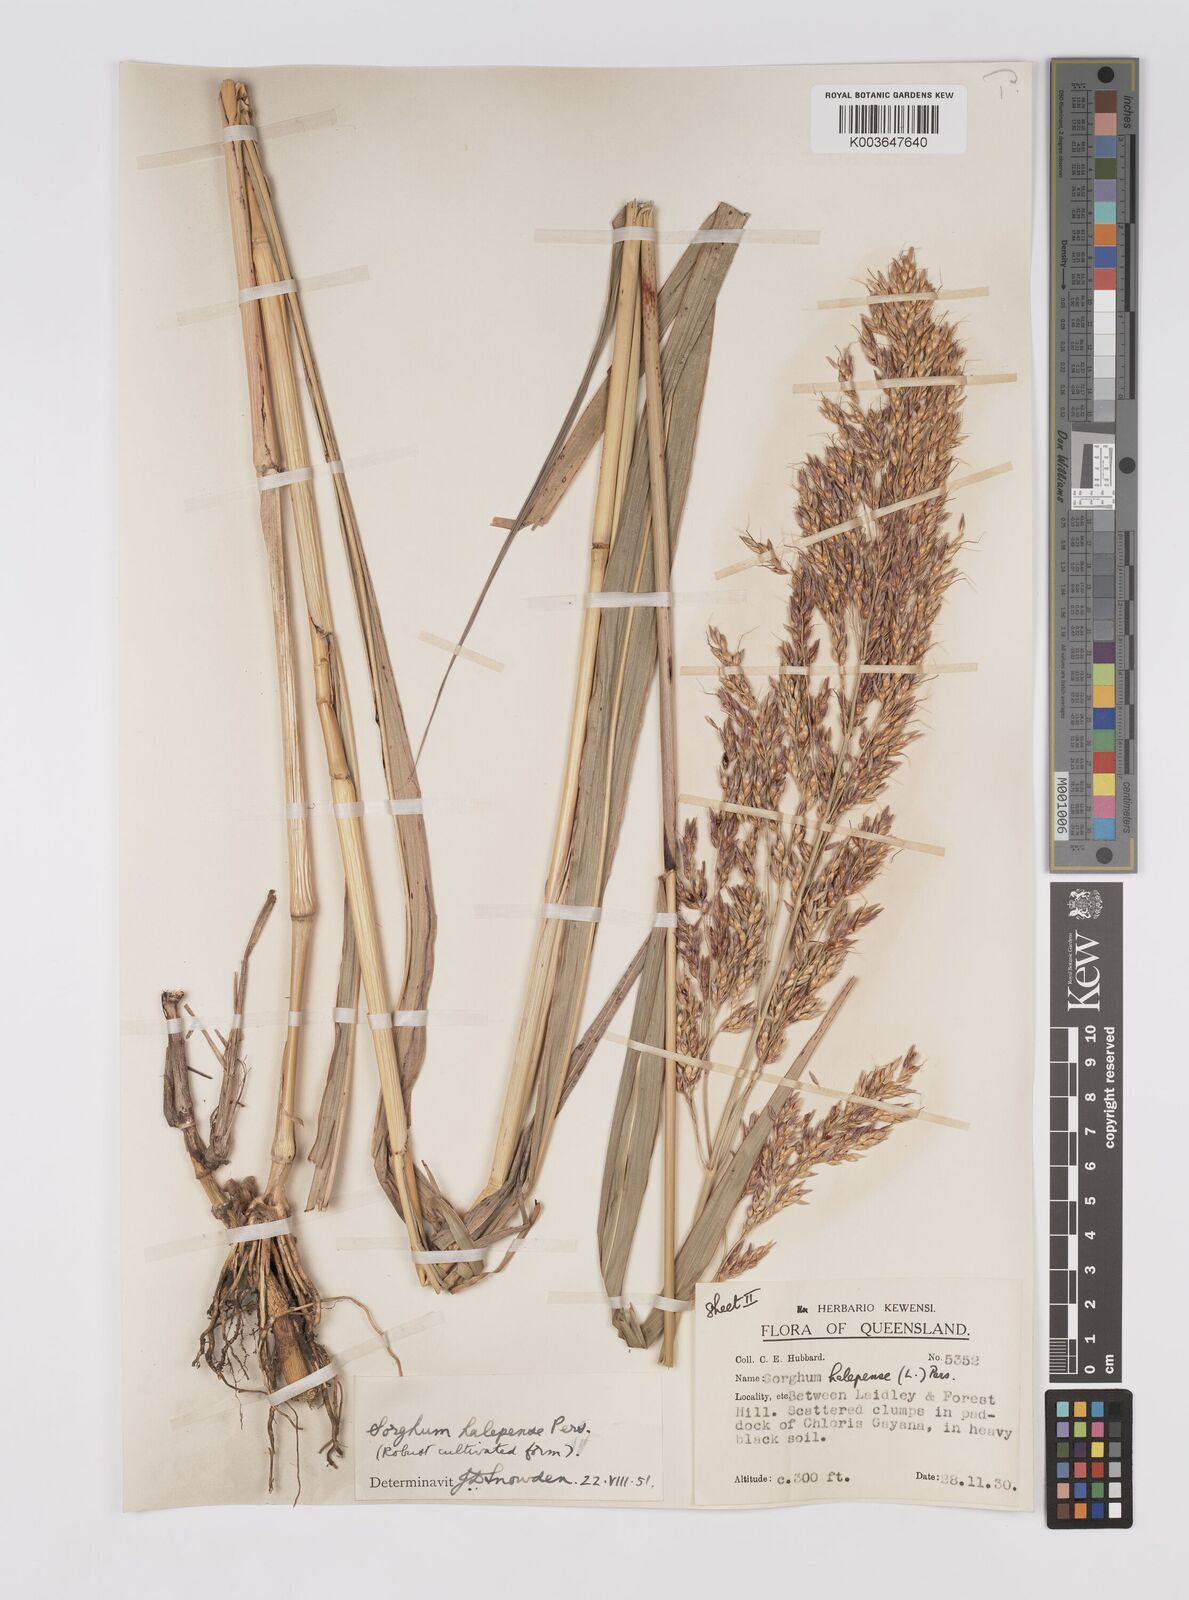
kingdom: Plantae
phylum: Tracheophyta
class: Liliopsida
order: Poales
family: Poaceae
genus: Sorghum
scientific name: Sorghum halepense
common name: Johnson-grass
